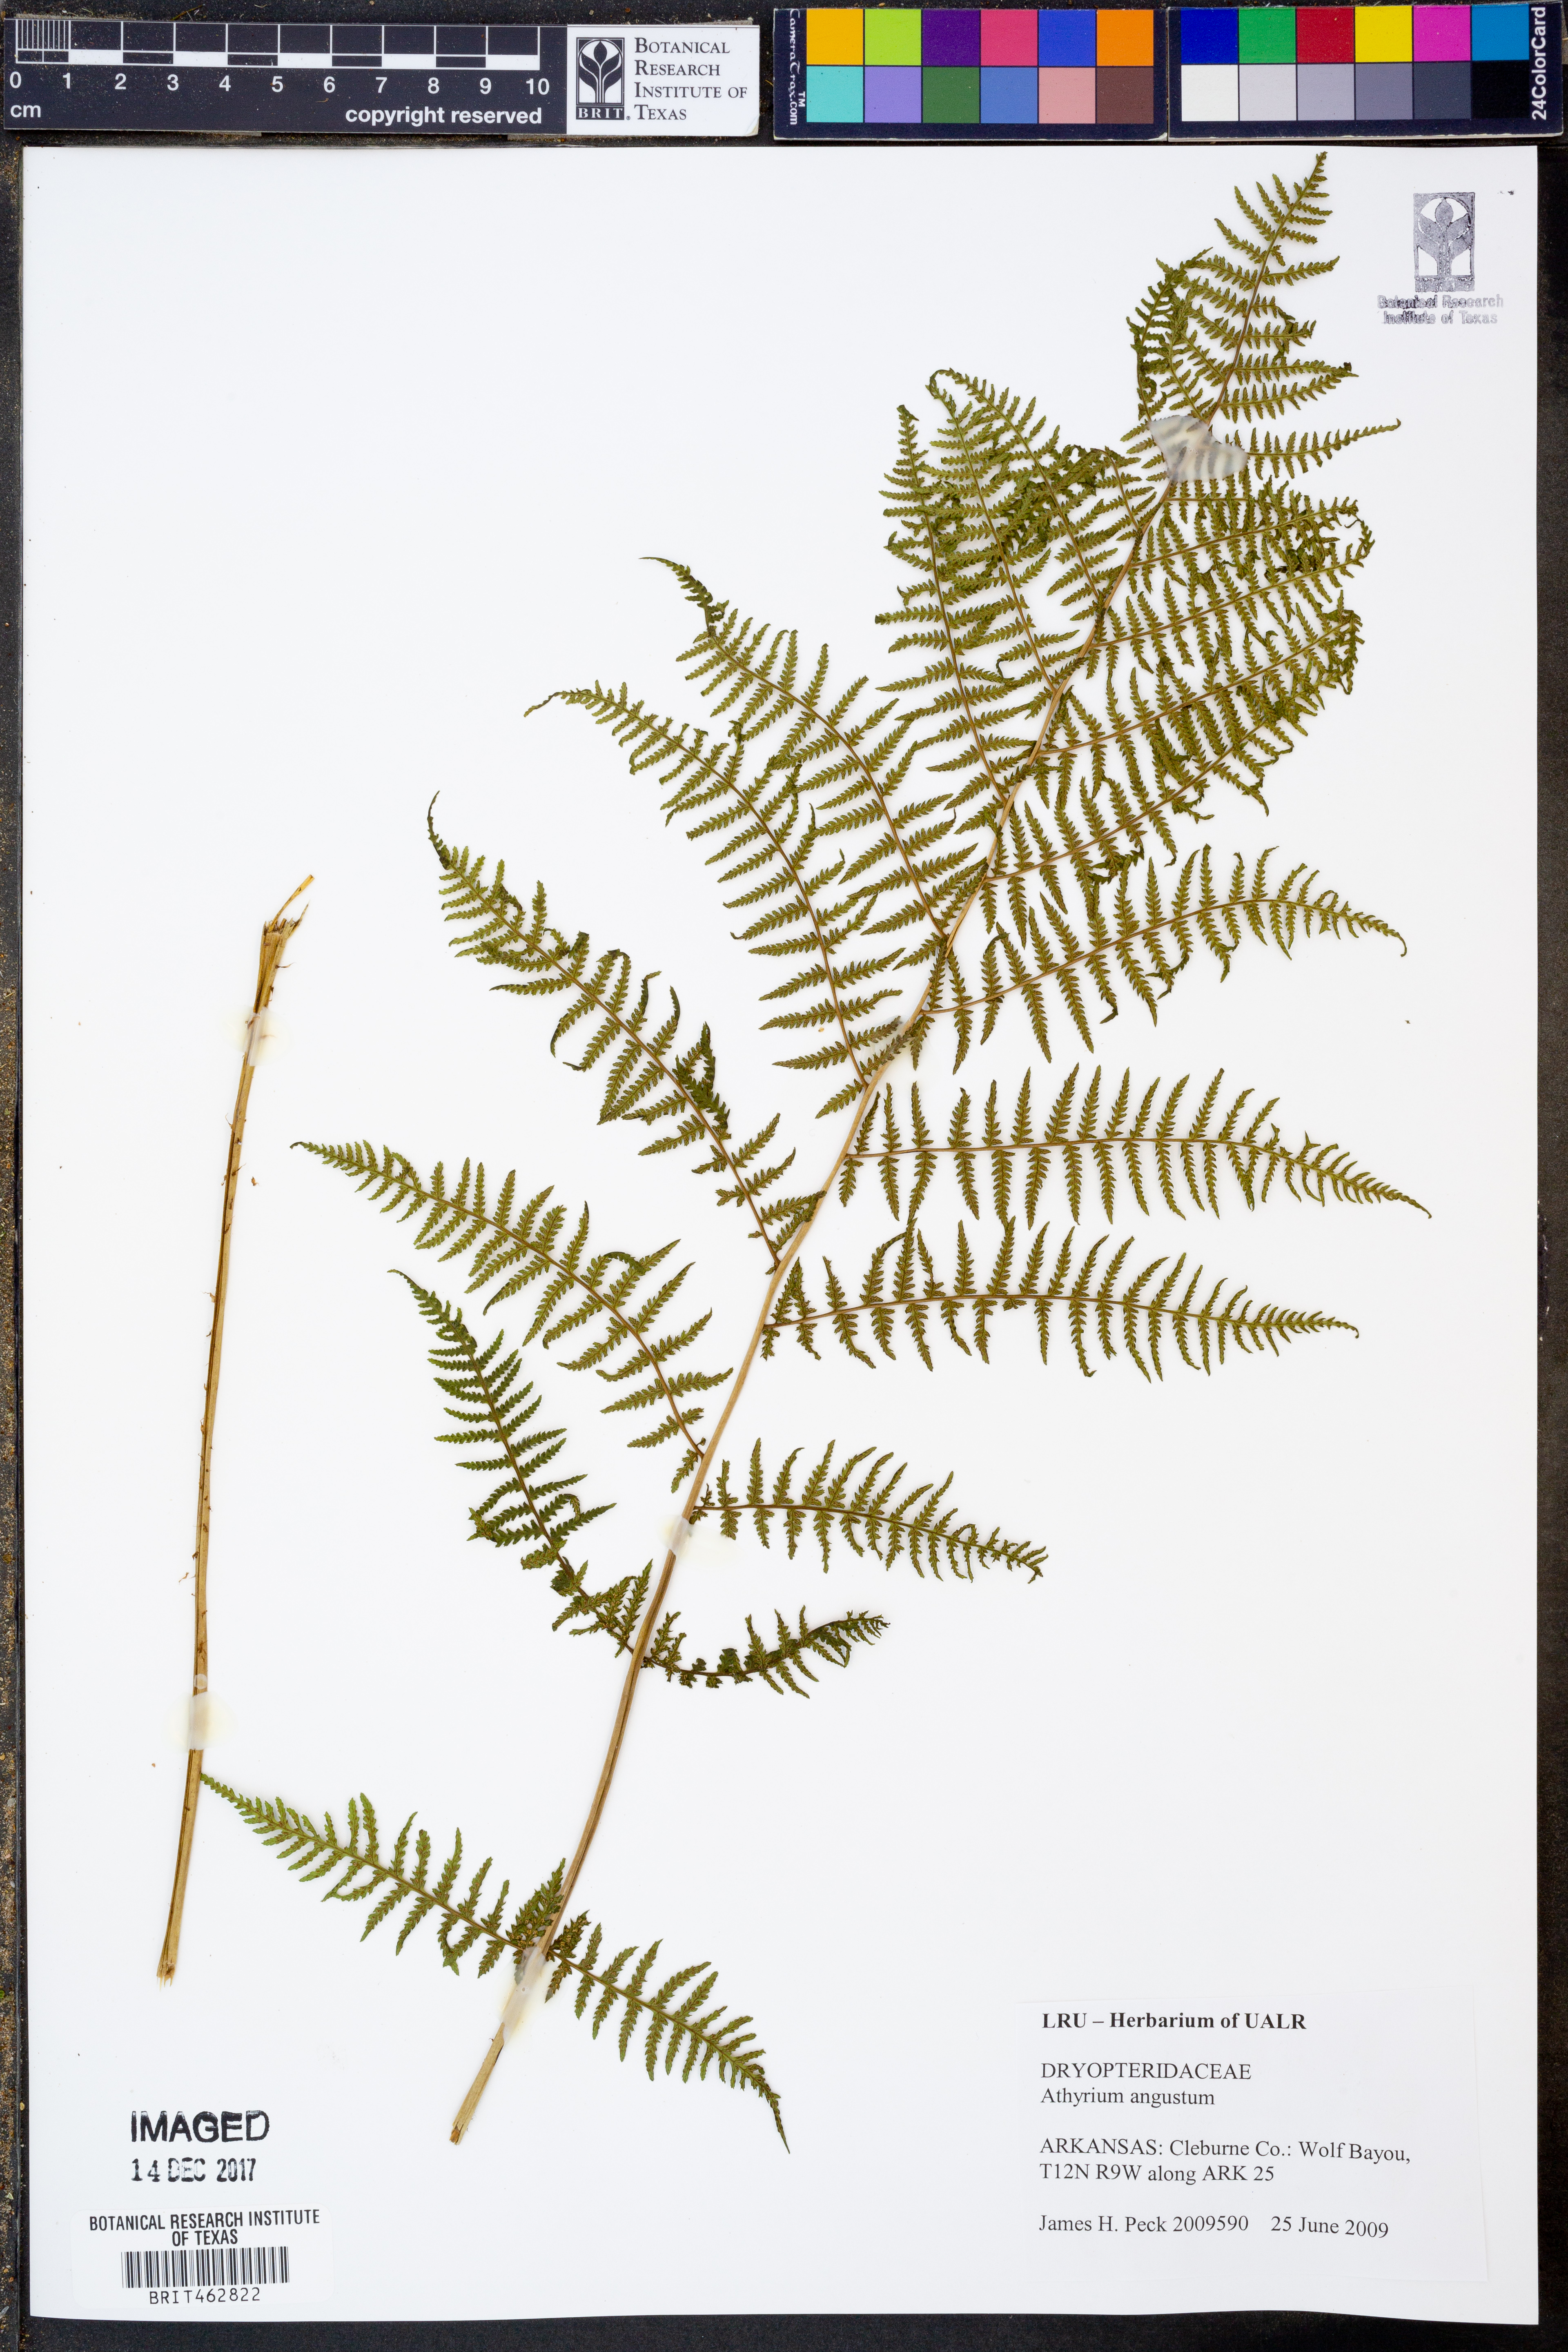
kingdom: Plantae
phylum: Tracheophyta
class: Polypodiopsida
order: Polypodiales
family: Athyriaceae
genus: Athyrium
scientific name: Athyrium angustum
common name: Northern lady fern
